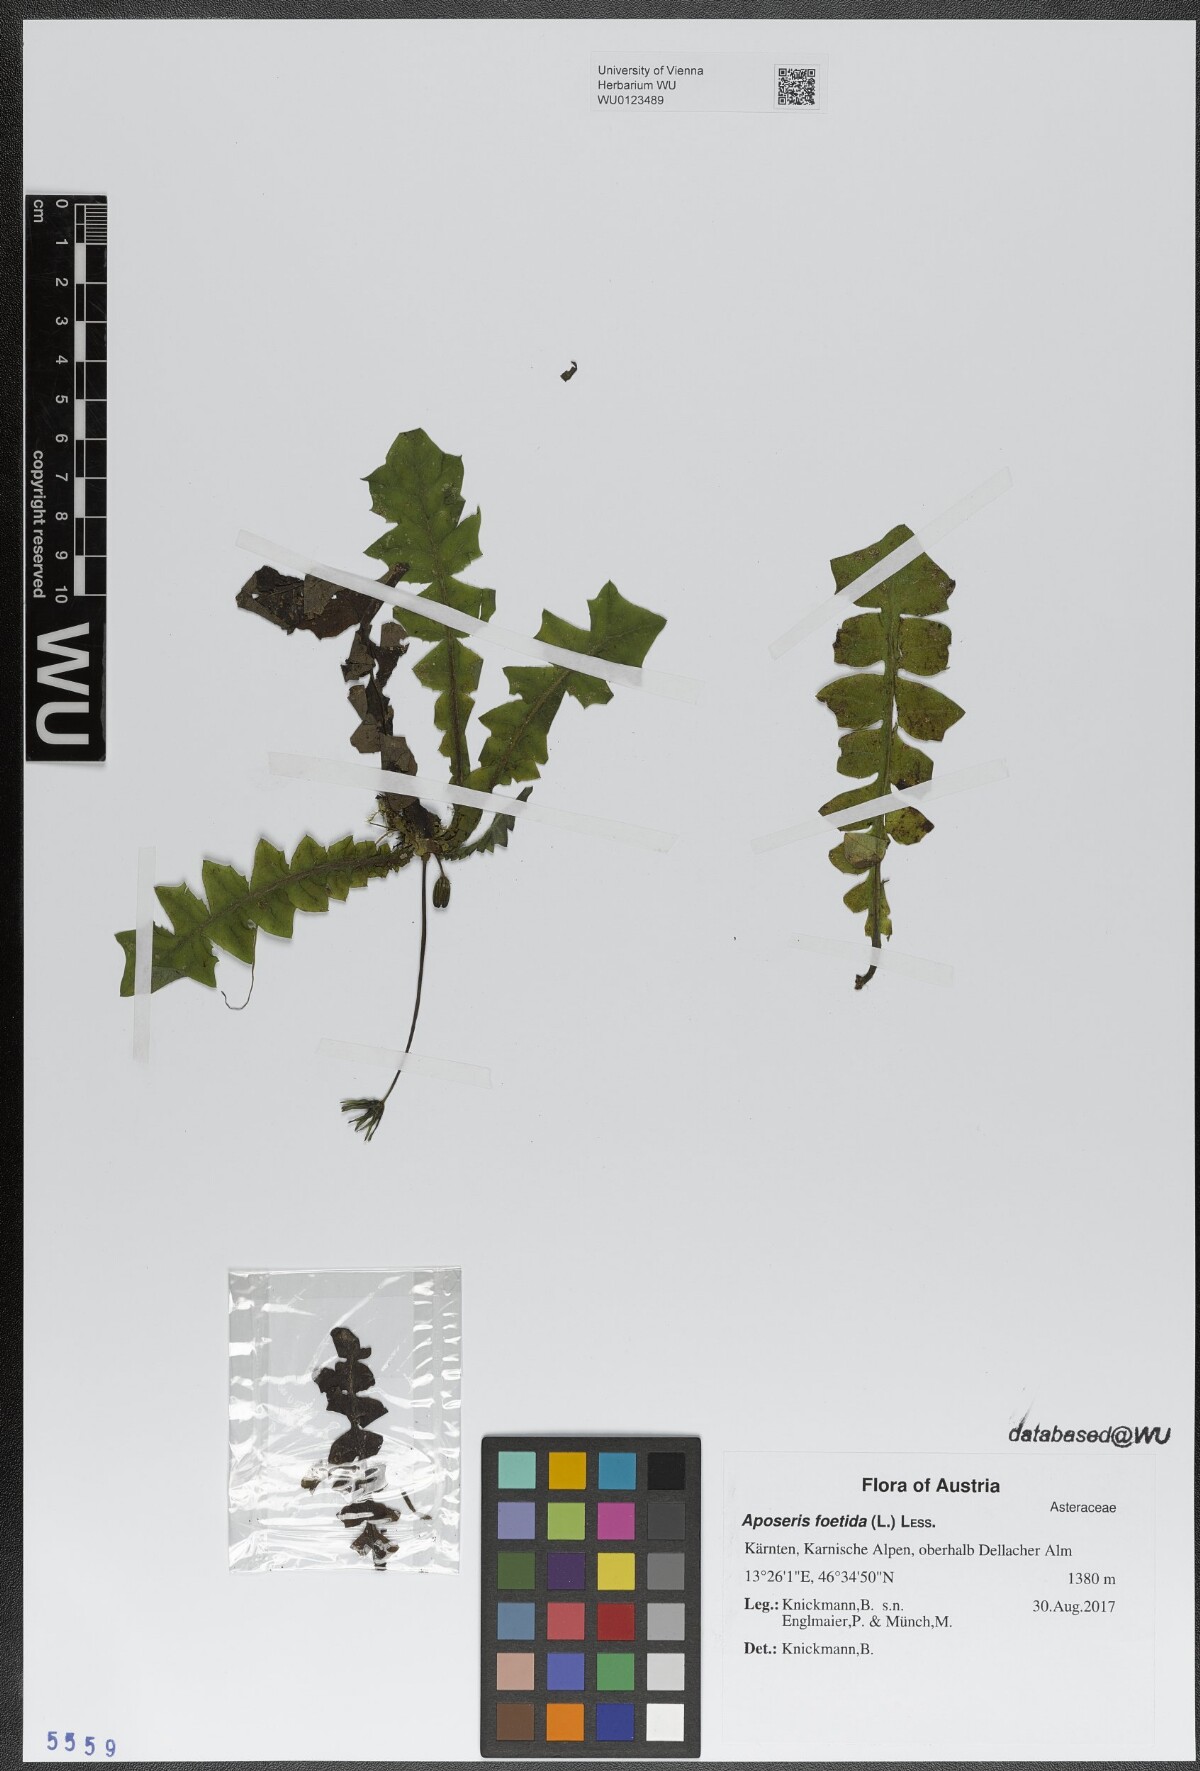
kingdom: Plantae
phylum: Tracheophyta
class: Magnoliopsida
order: Asterales
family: Asteraceae
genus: Aposeris
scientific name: Aposeris foetida
